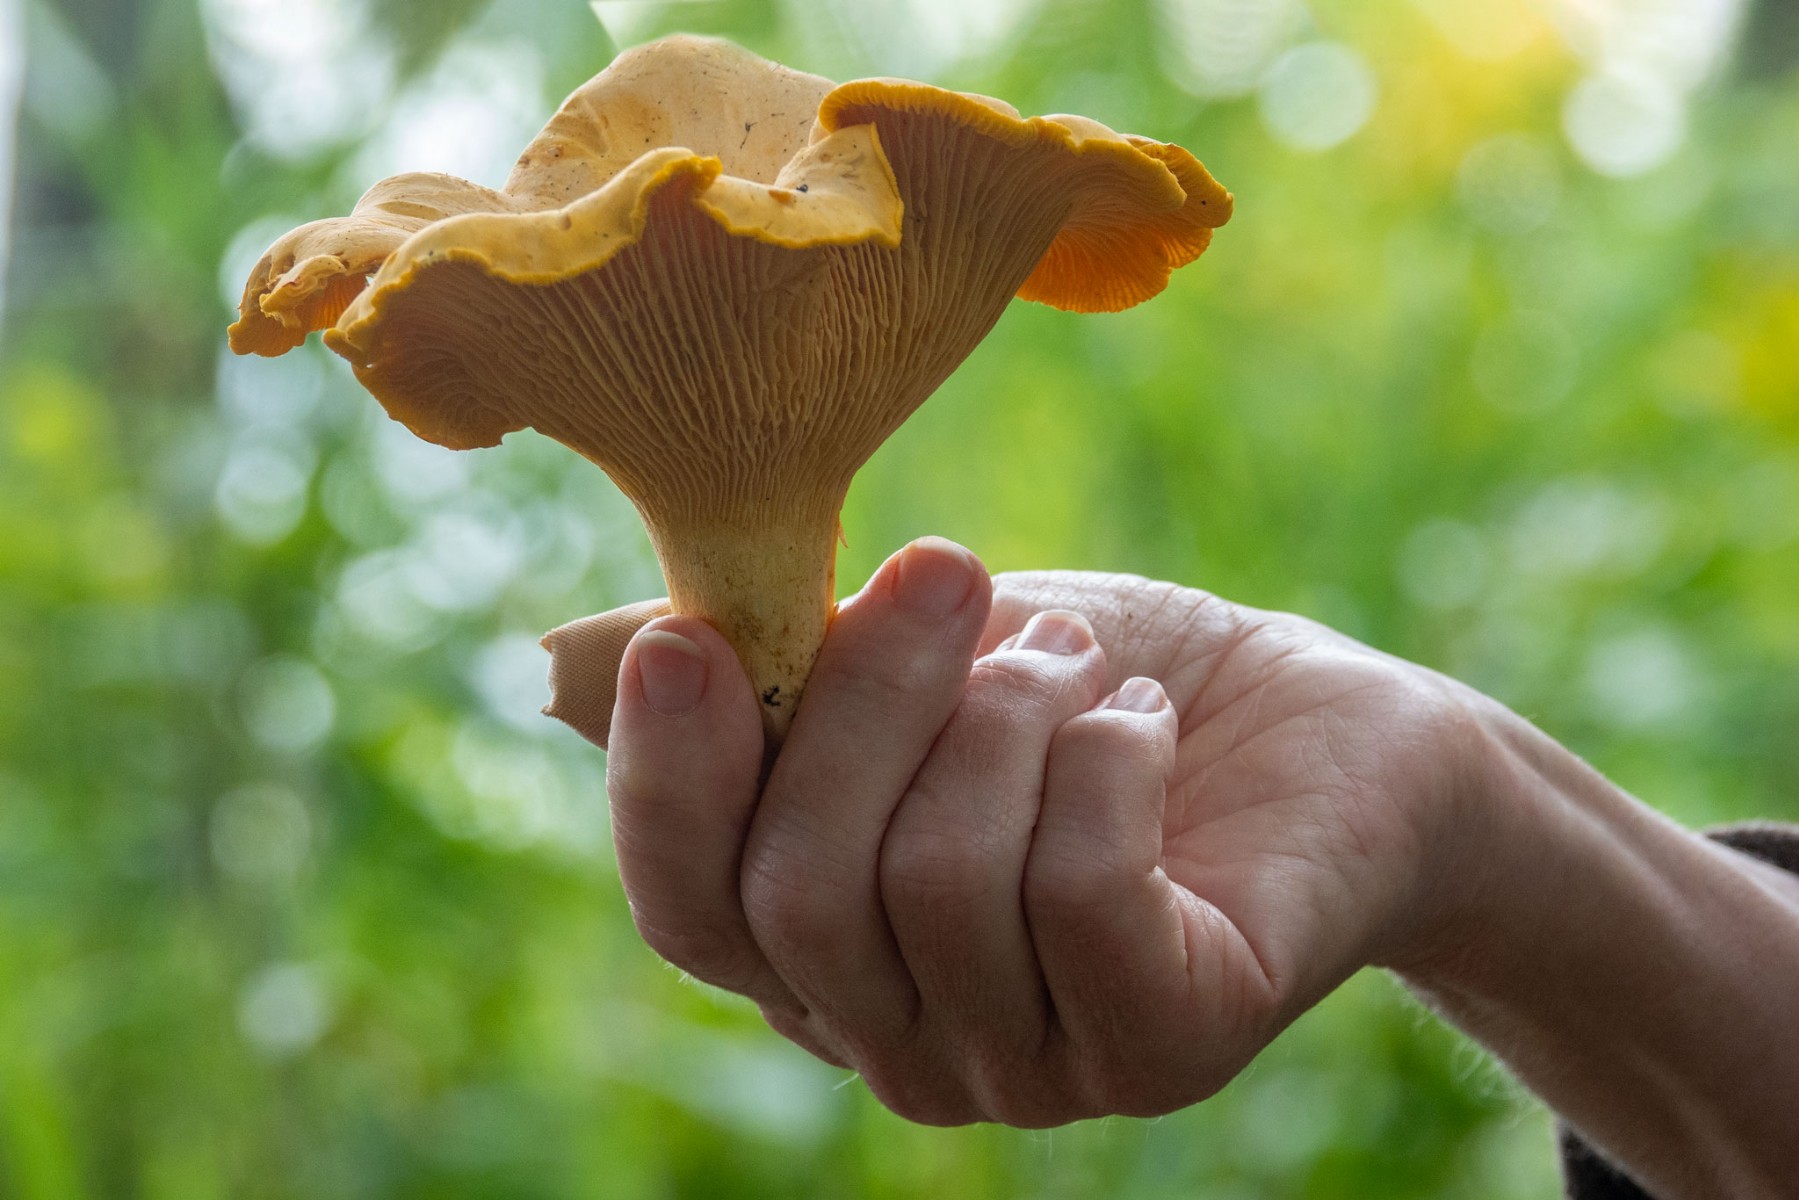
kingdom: Fungi
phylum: Basidiomycota
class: Agaricomycetes
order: Cantharellales
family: Hydnaceae
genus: Cantharellus
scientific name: Cantharellus pallens
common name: bleg kantarel
